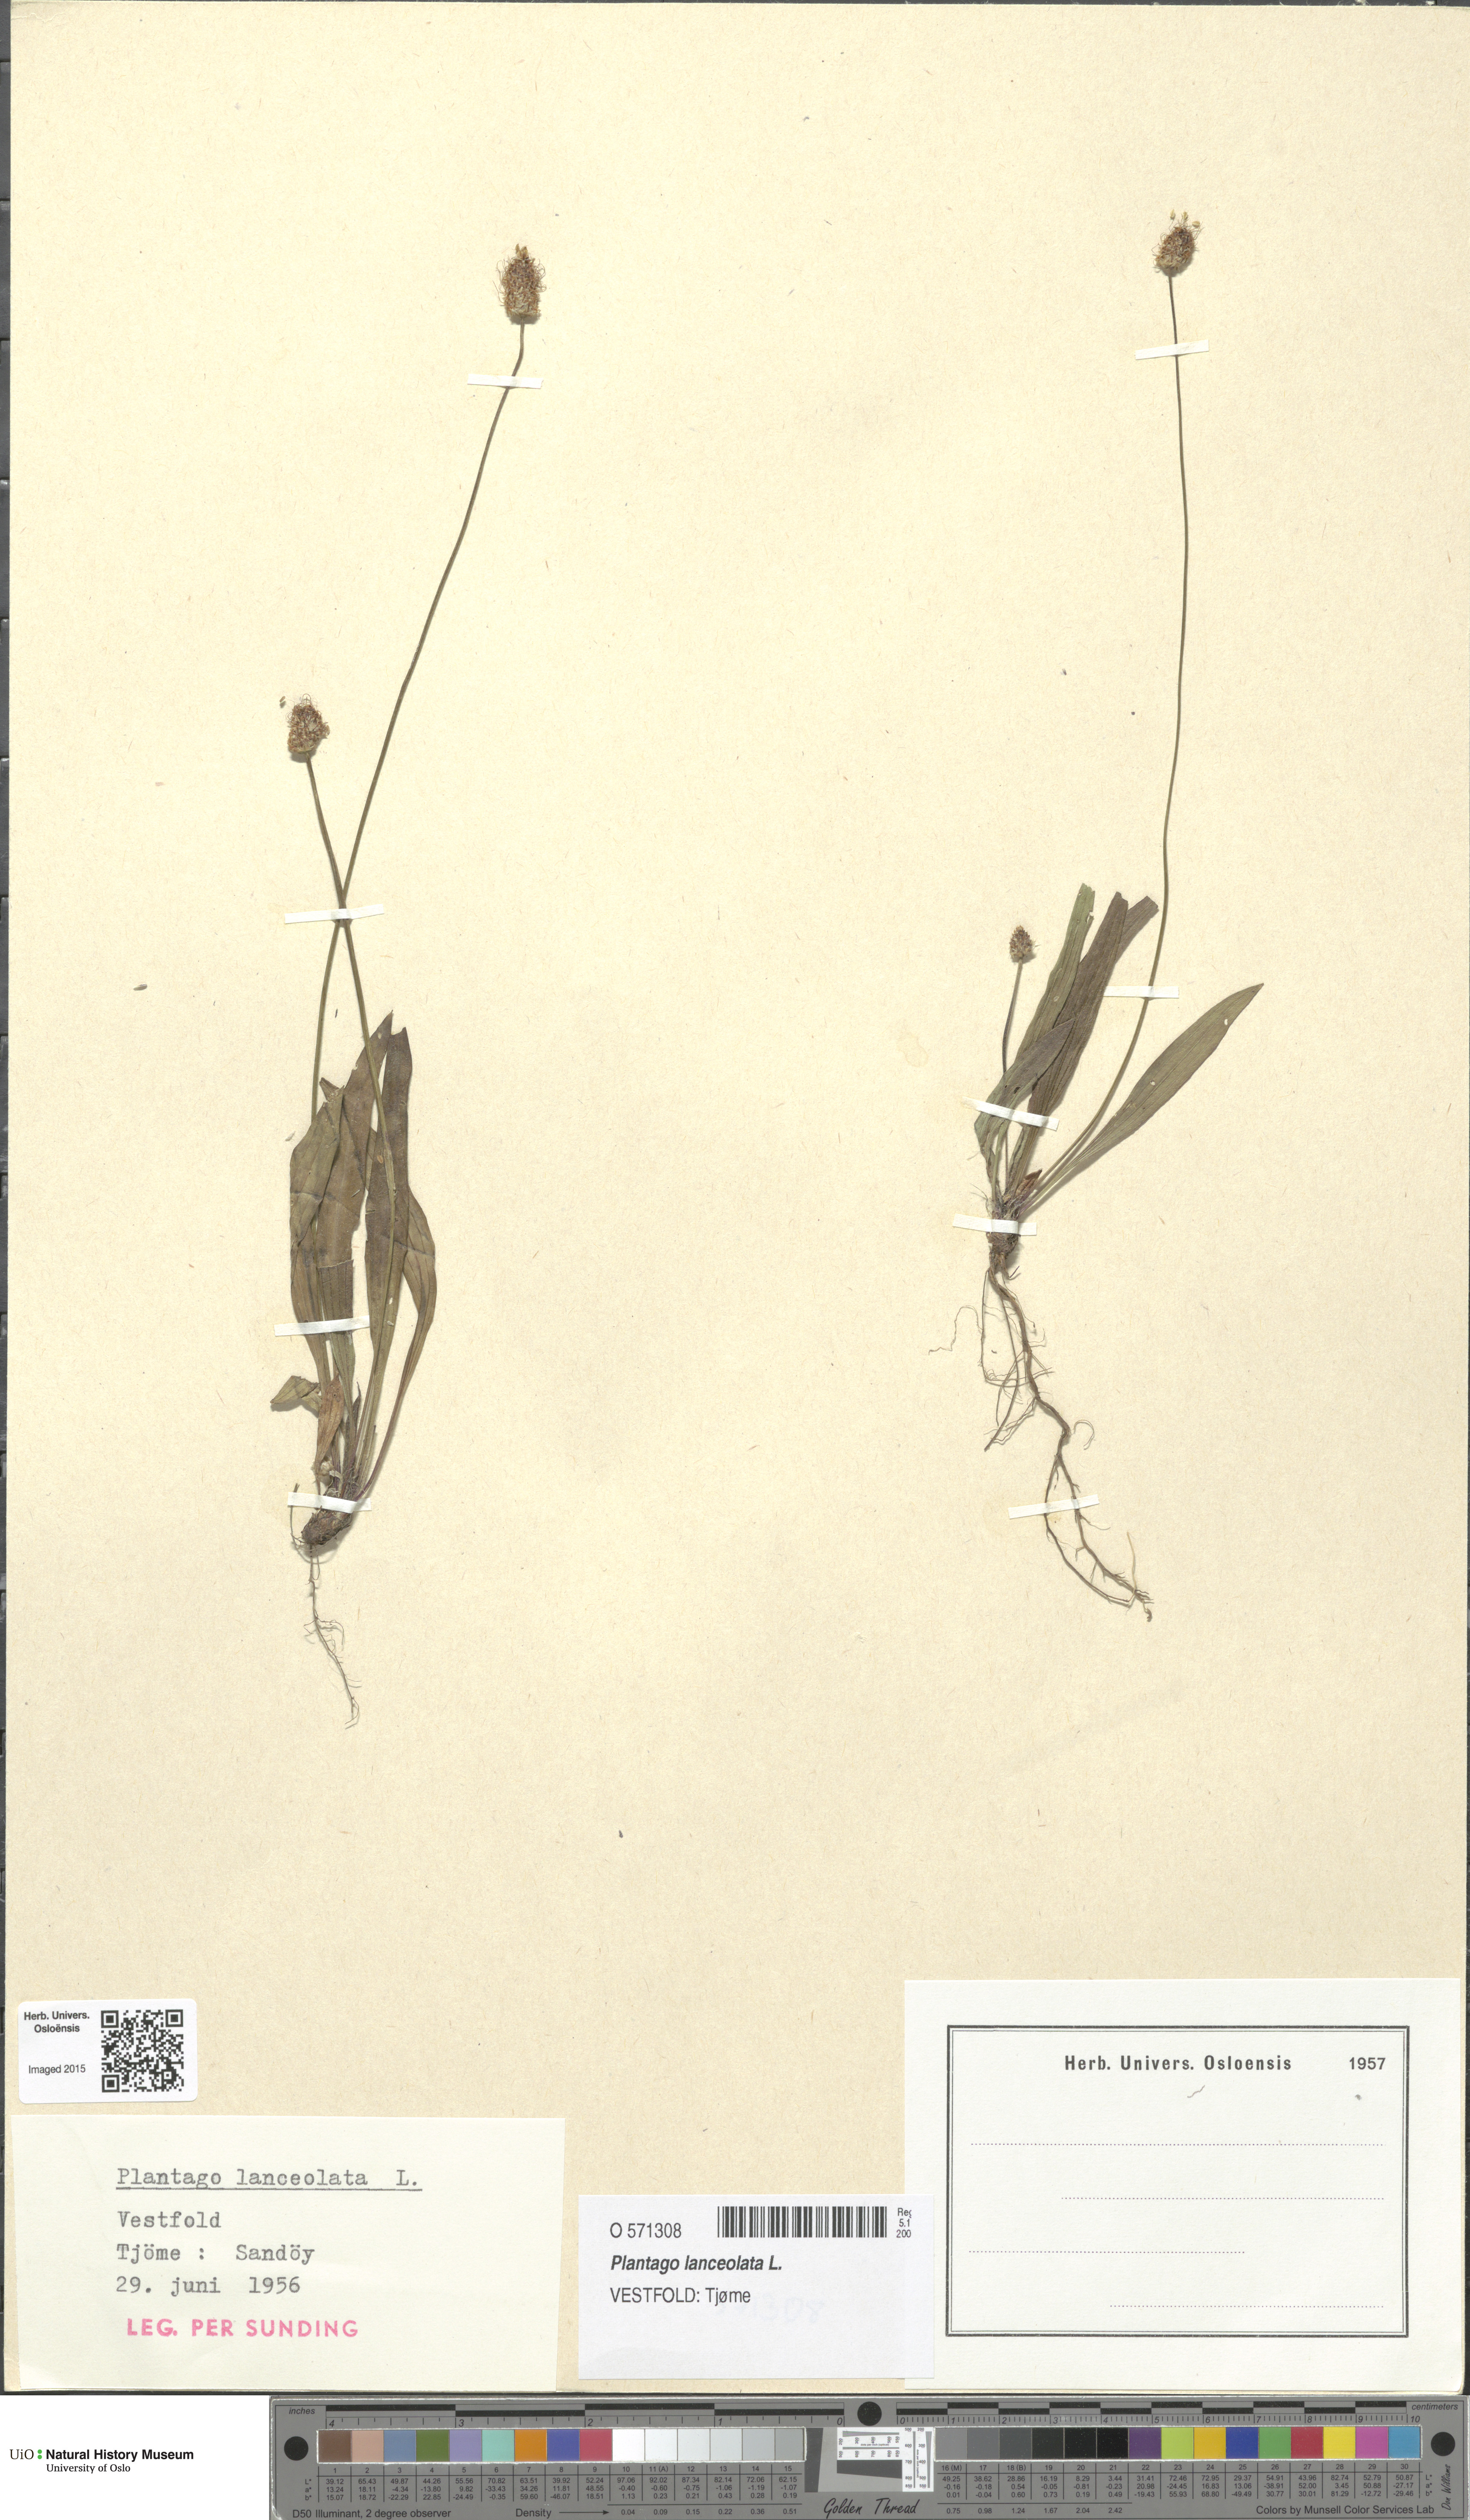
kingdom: Plantae
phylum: Tracheophyta
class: Magnoliopsida
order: Lamiales
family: Plantaginaceae
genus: Plantago
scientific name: Plantago lanceolata
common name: Ribwort plantain
